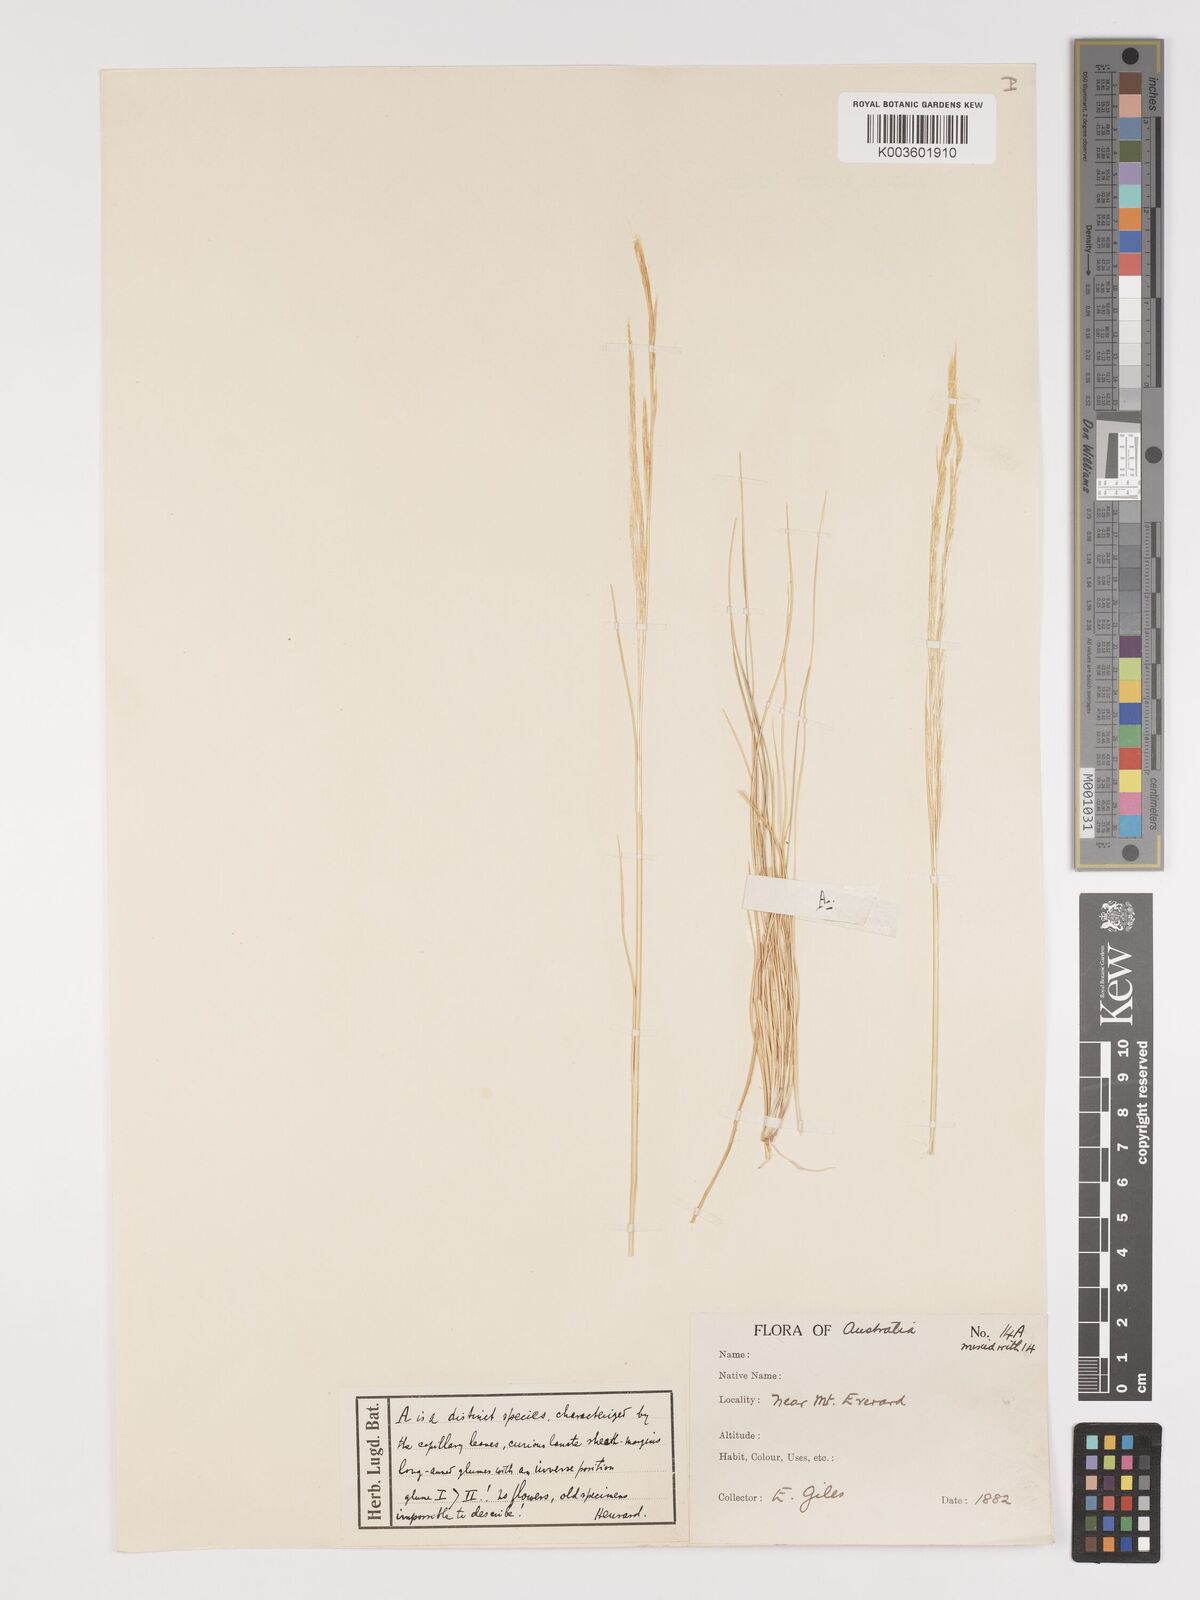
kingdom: Plantae
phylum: Tracheophyta
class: Liliopsida
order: Poales
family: Poaceae
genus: Austrostipa
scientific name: Austrostipa nitida
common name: Balcarra grass
